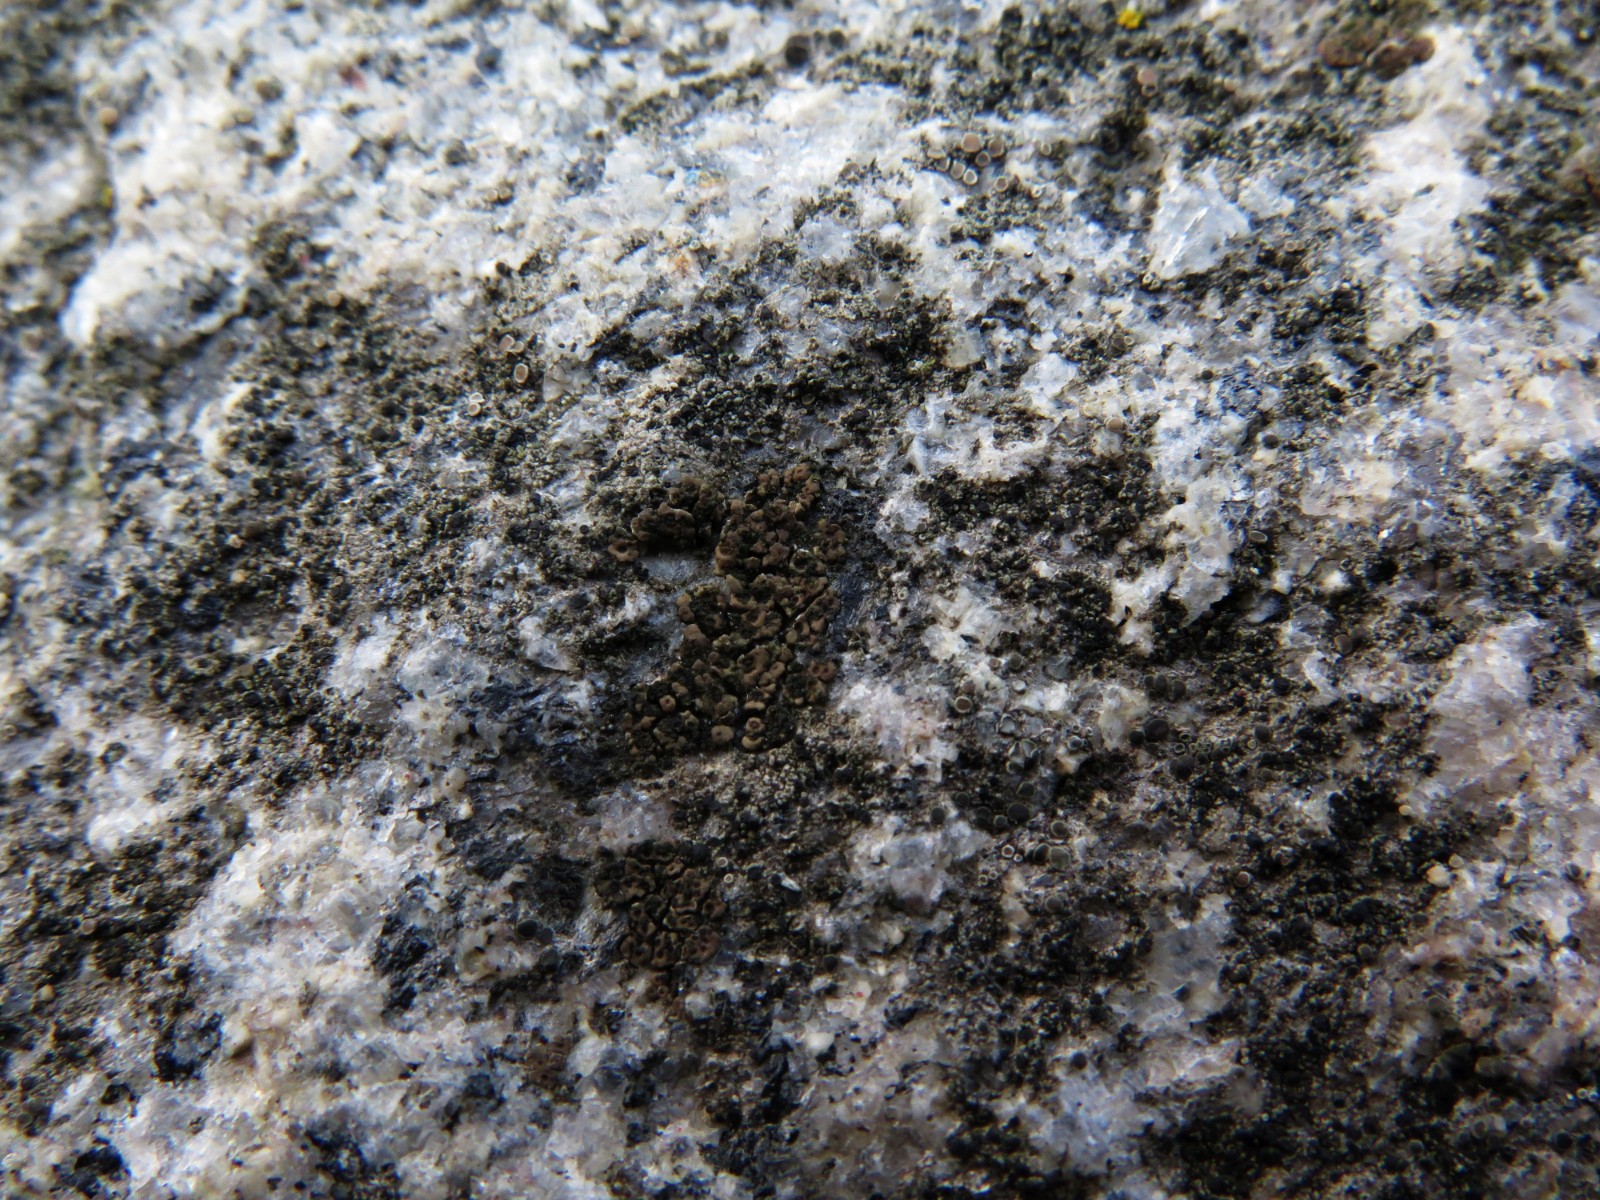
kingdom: Fungi
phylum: Ascomycota
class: Lecanoromycetes
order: Acarosporales
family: Acarosporaceae
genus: Acarospora
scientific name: Acarospora fuscata
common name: brun småsporelav
